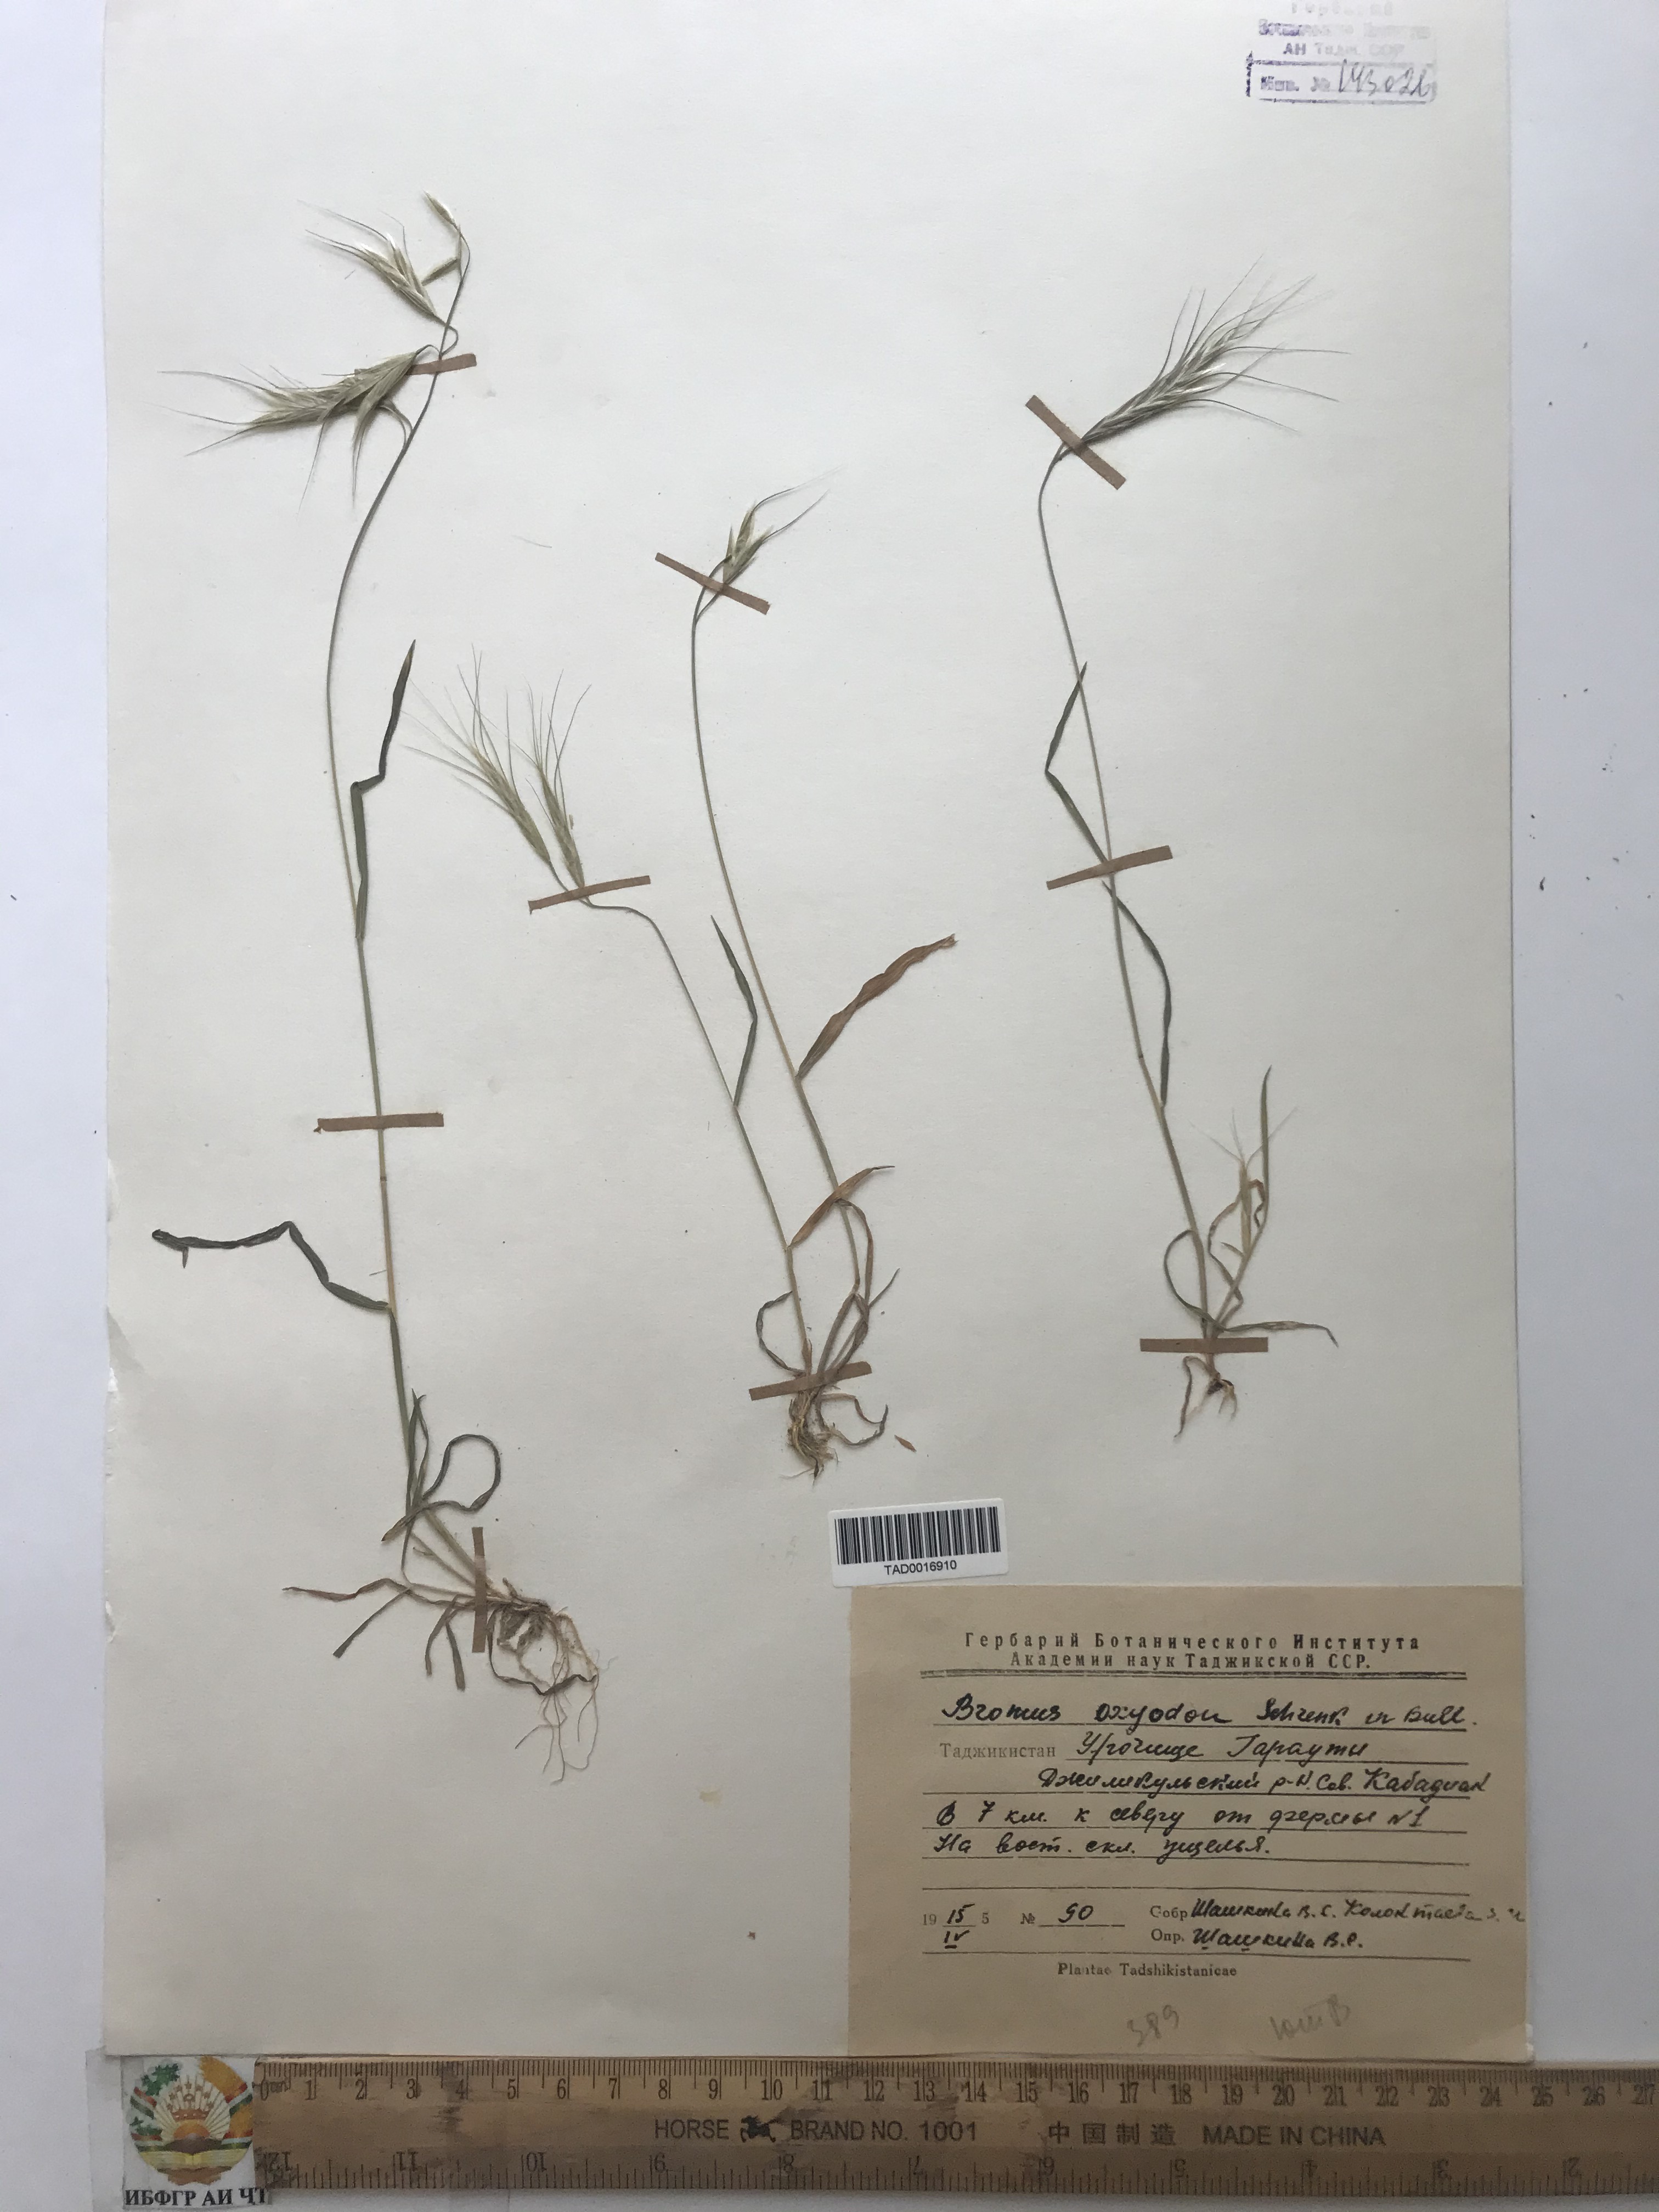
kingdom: Plantae
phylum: Tracheophyta
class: Liliopsida
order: Poales
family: Poaceae
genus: Bromus
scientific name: Bromus oxyodon
